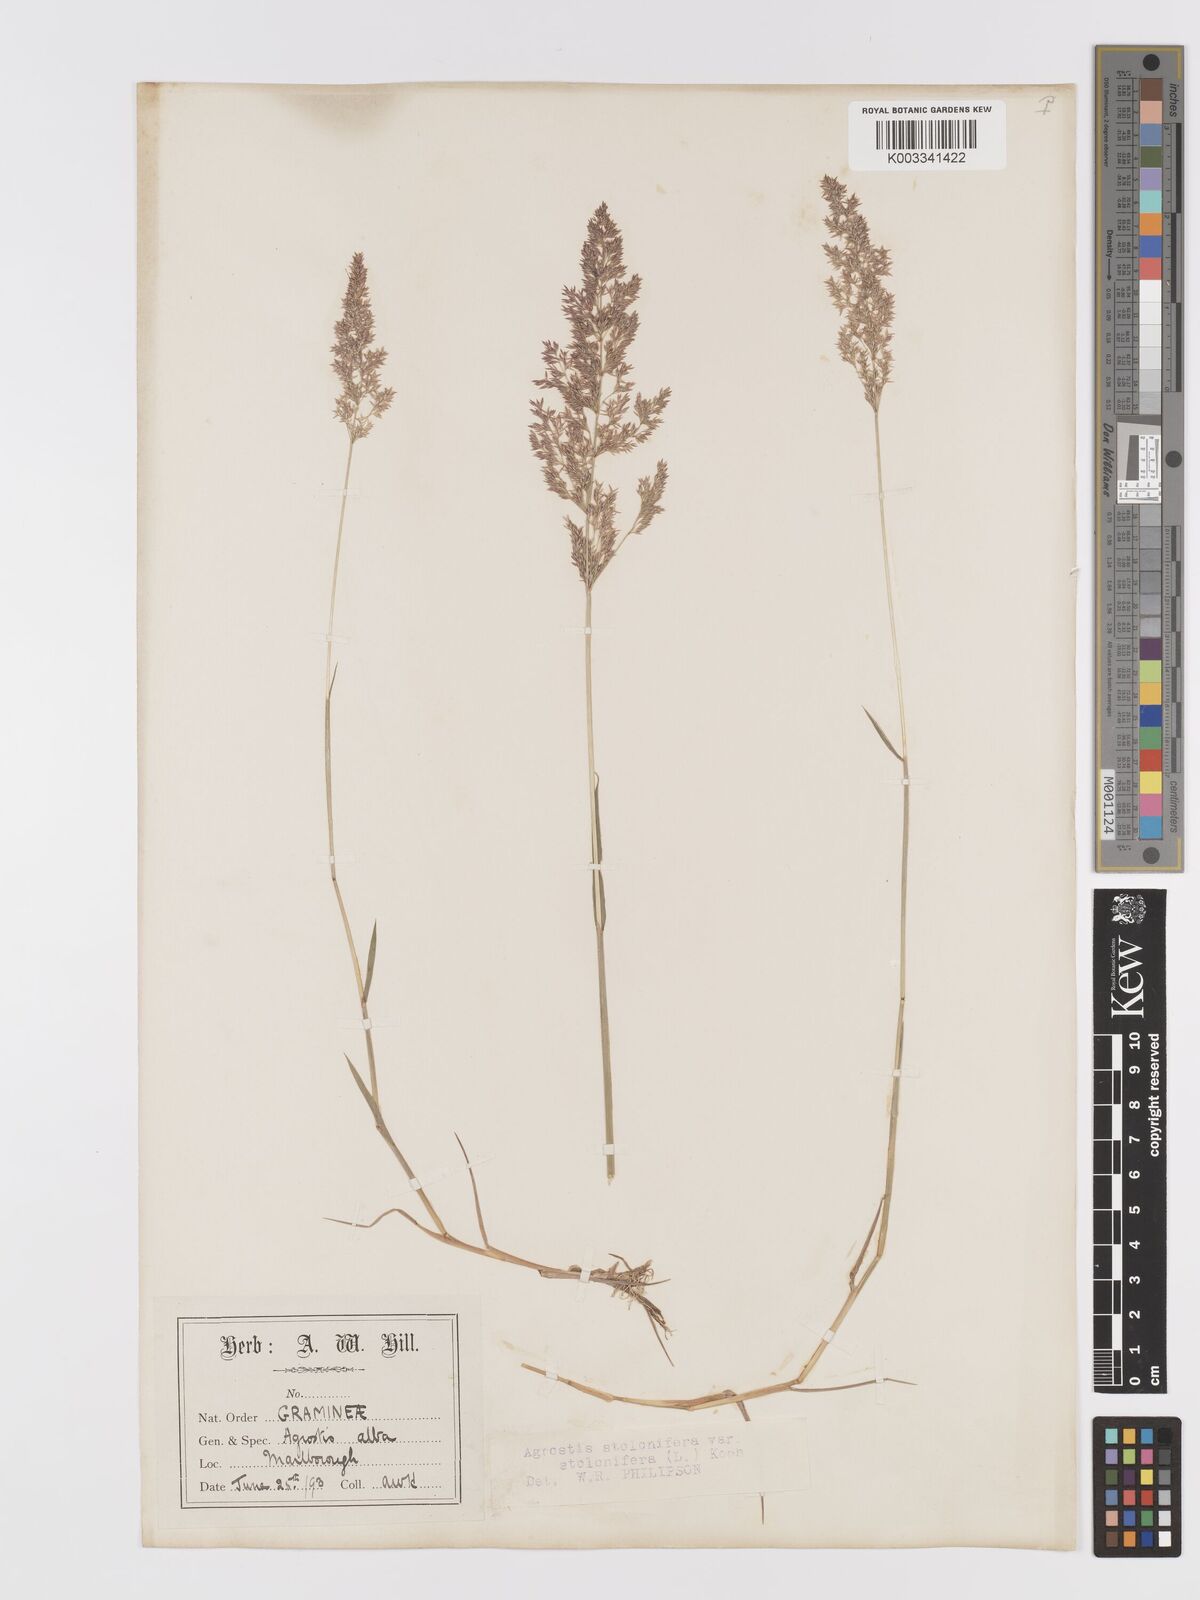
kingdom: Plantae
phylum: Tracheophyta
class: Liliopsida
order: Poales
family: Poaceae
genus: Agrostis
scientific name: Agrostis stolonifera
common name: Creeping bentgrass
